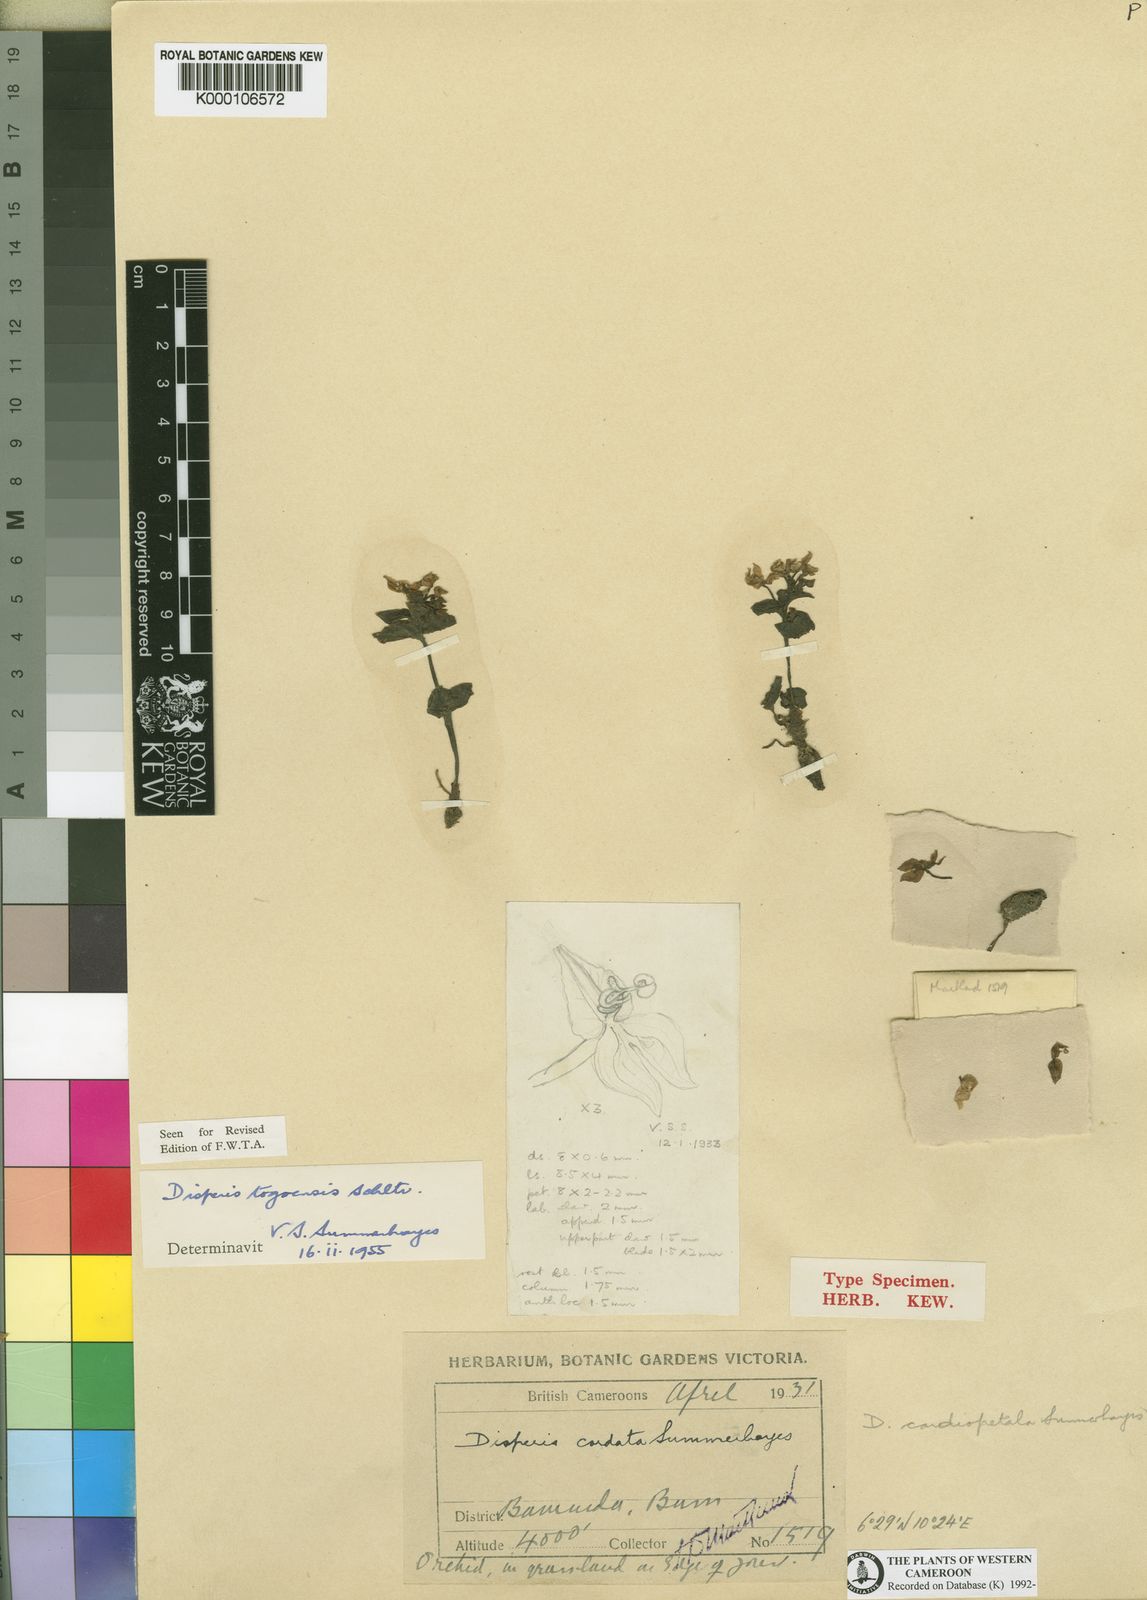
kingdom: Plantae
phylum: Tracheophyta
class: Liliopsida
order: Asparagales
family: Orchidaceae
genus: Disperis
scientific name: Disperis togoensis
